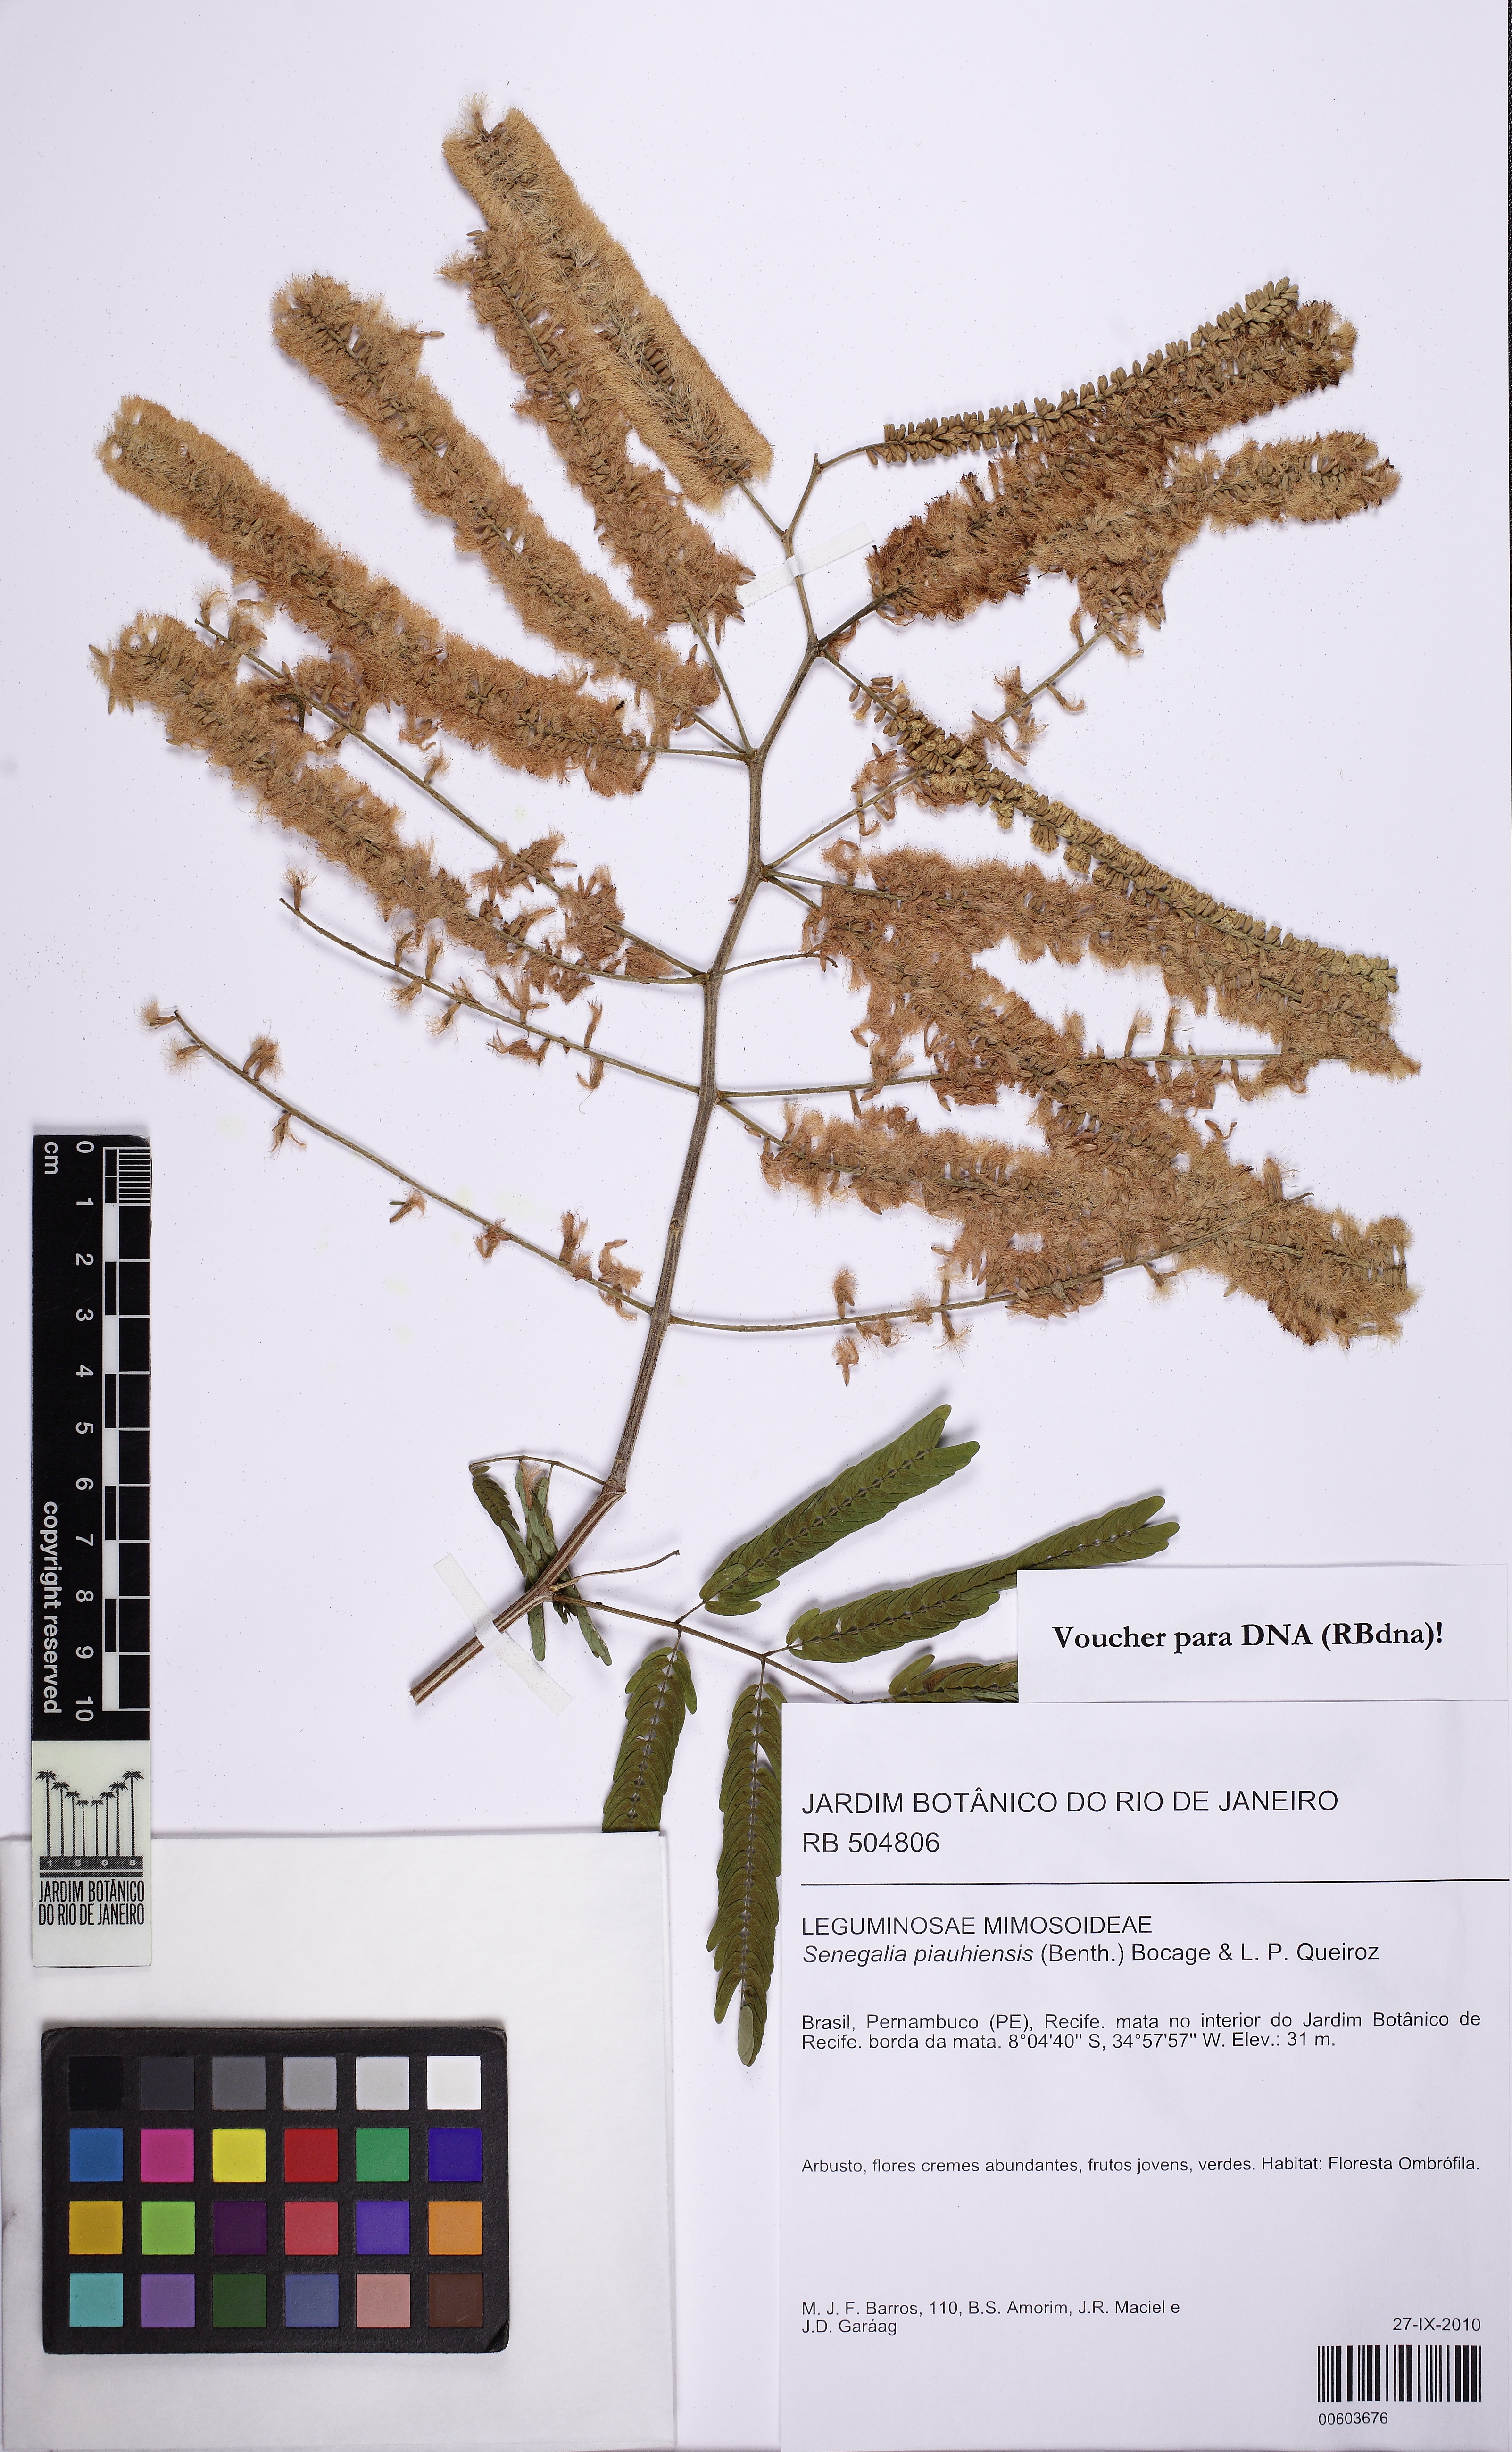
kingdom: Plantae
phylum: Tracheophyta
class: Magnoliopsida
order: Fabales
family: Fabaceae
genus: Senegalia
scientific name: Senegalia piauhiensis
